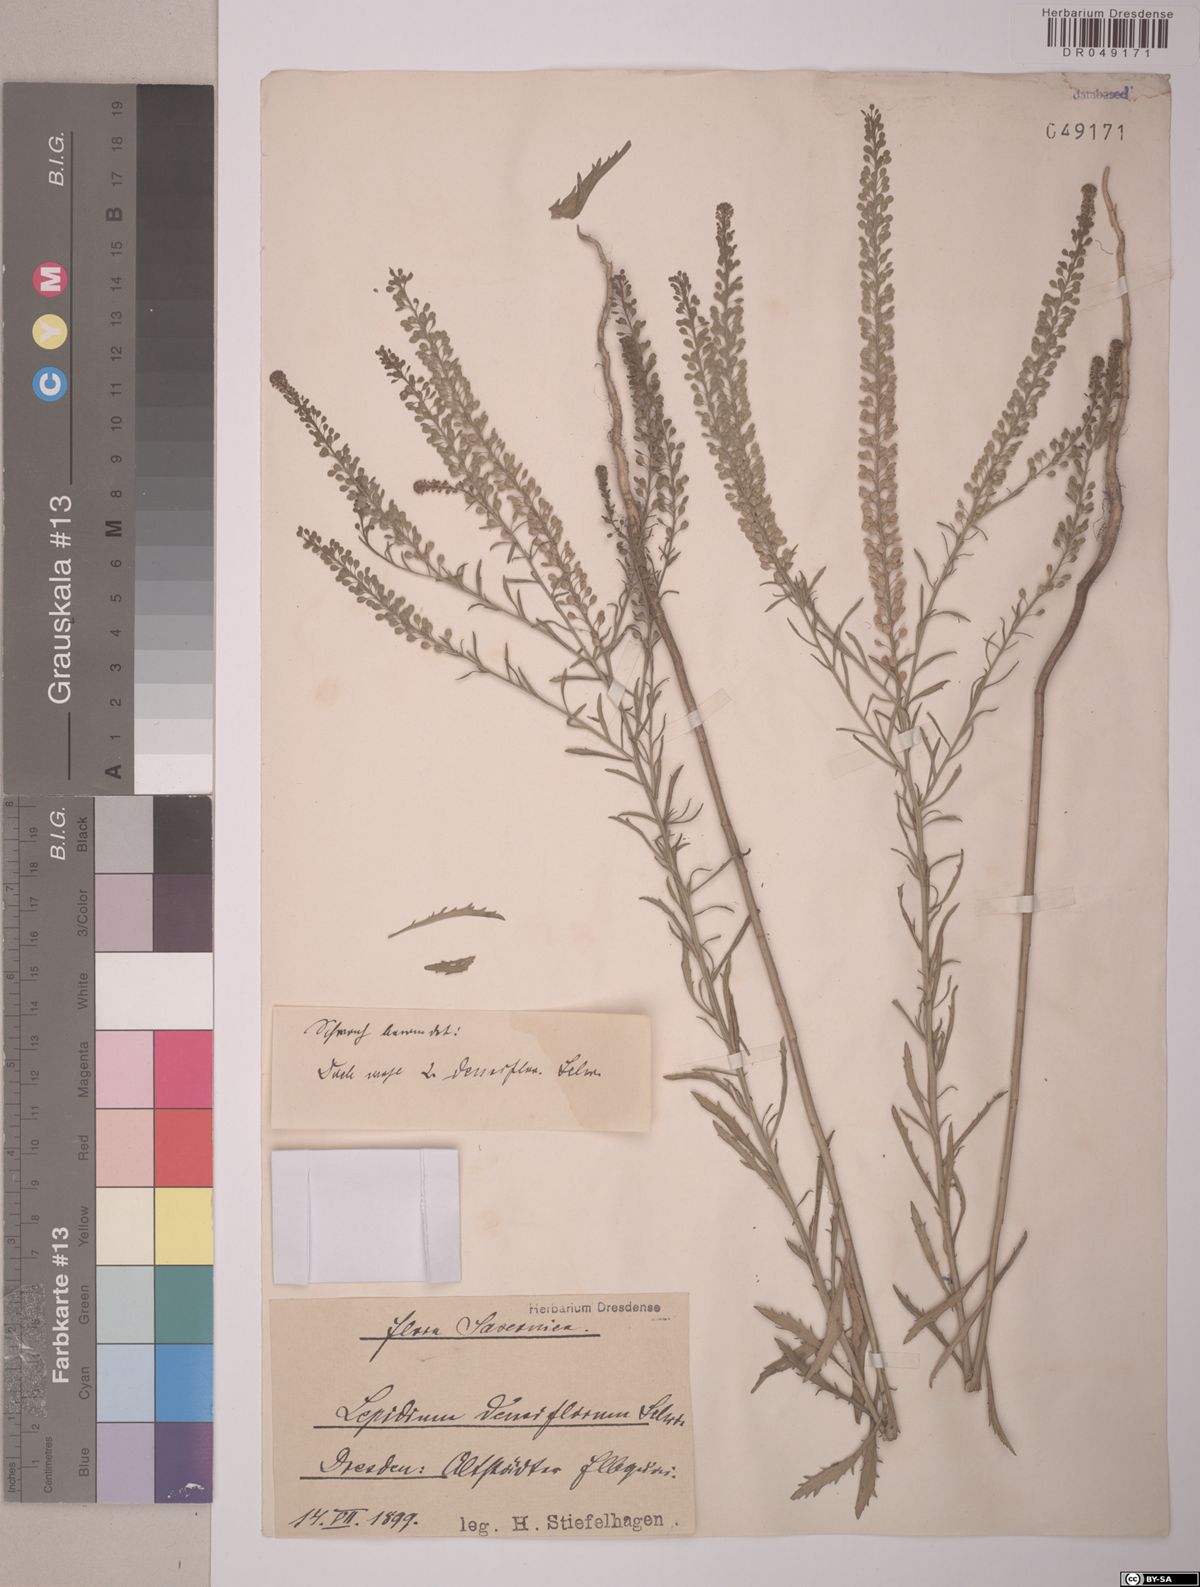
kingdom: Plantae
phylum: Tracheophyta
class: Magnoliopsida
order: Brassicales
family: Brassicaceae
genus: Lepidium
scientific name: Lepidium densiflorum
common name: Miner's pepperwort
